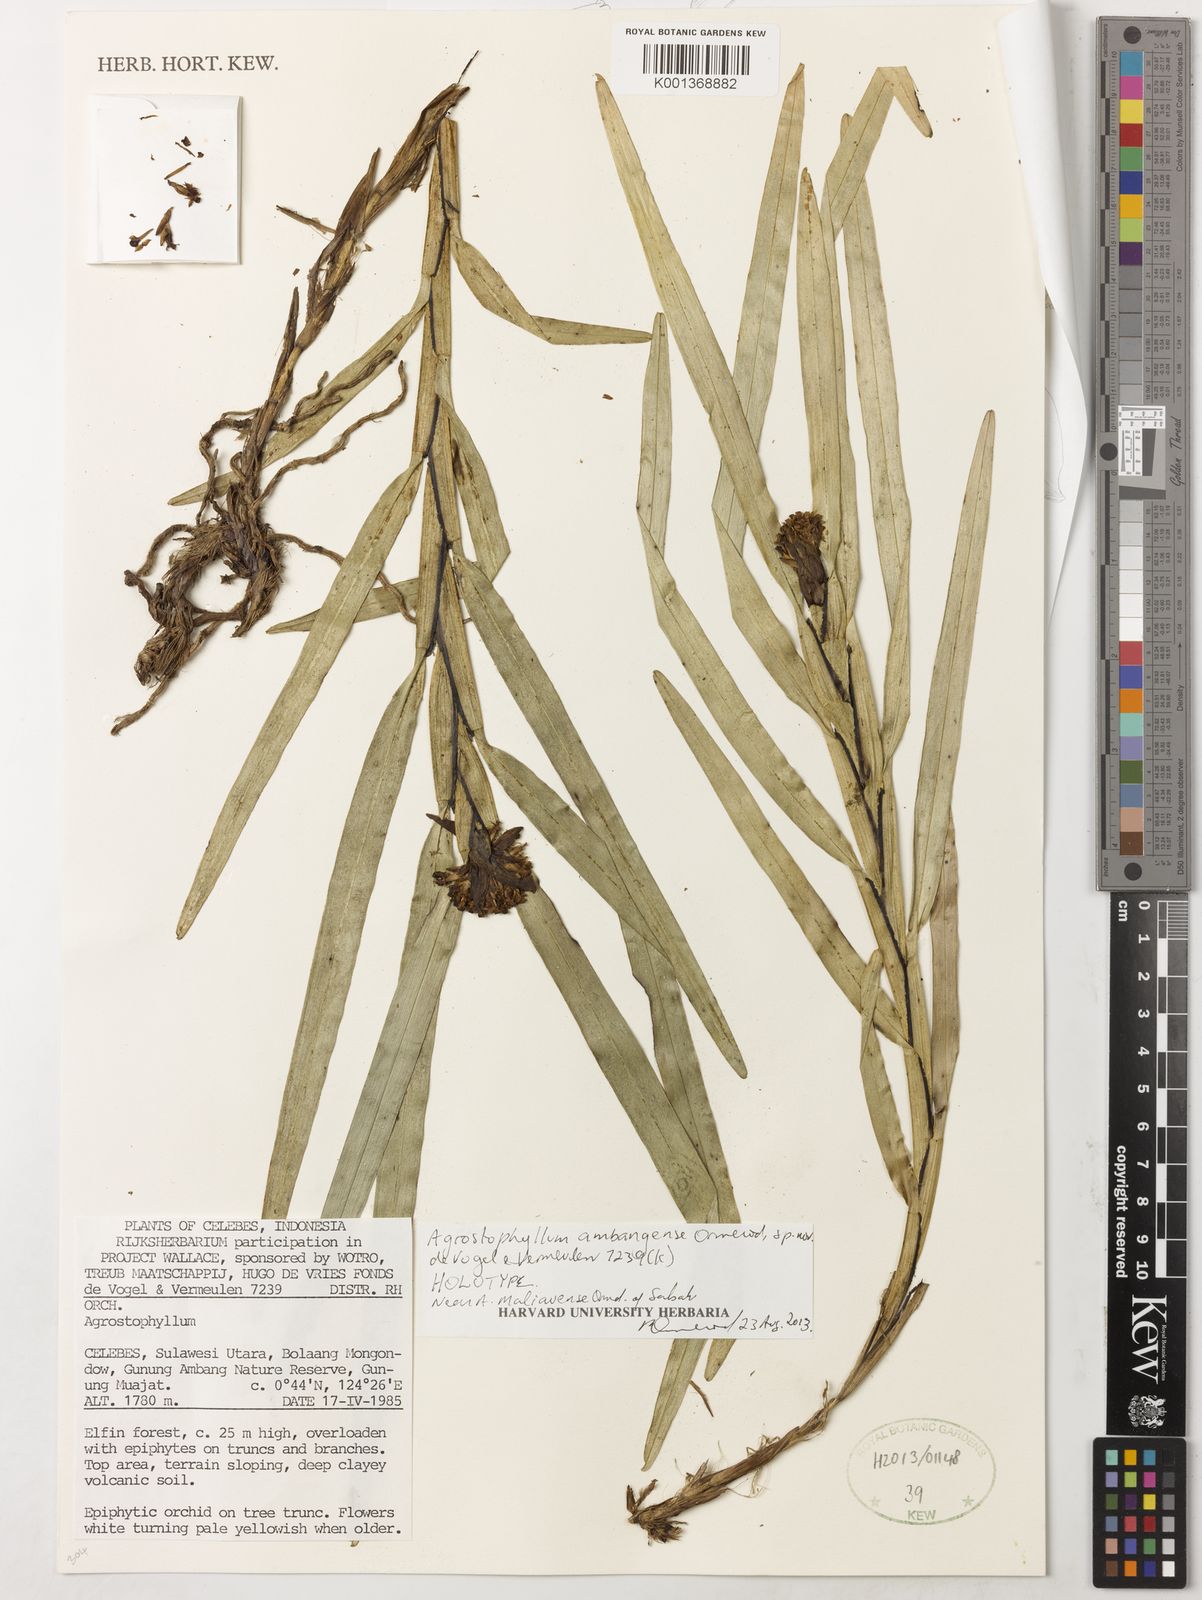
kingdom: Plantae
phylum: Tracheophyta
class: Liliopsida
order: Asparagales
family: Orchidaceae
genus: Agrostophyllum
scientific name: Agrostophyllum ambangense
